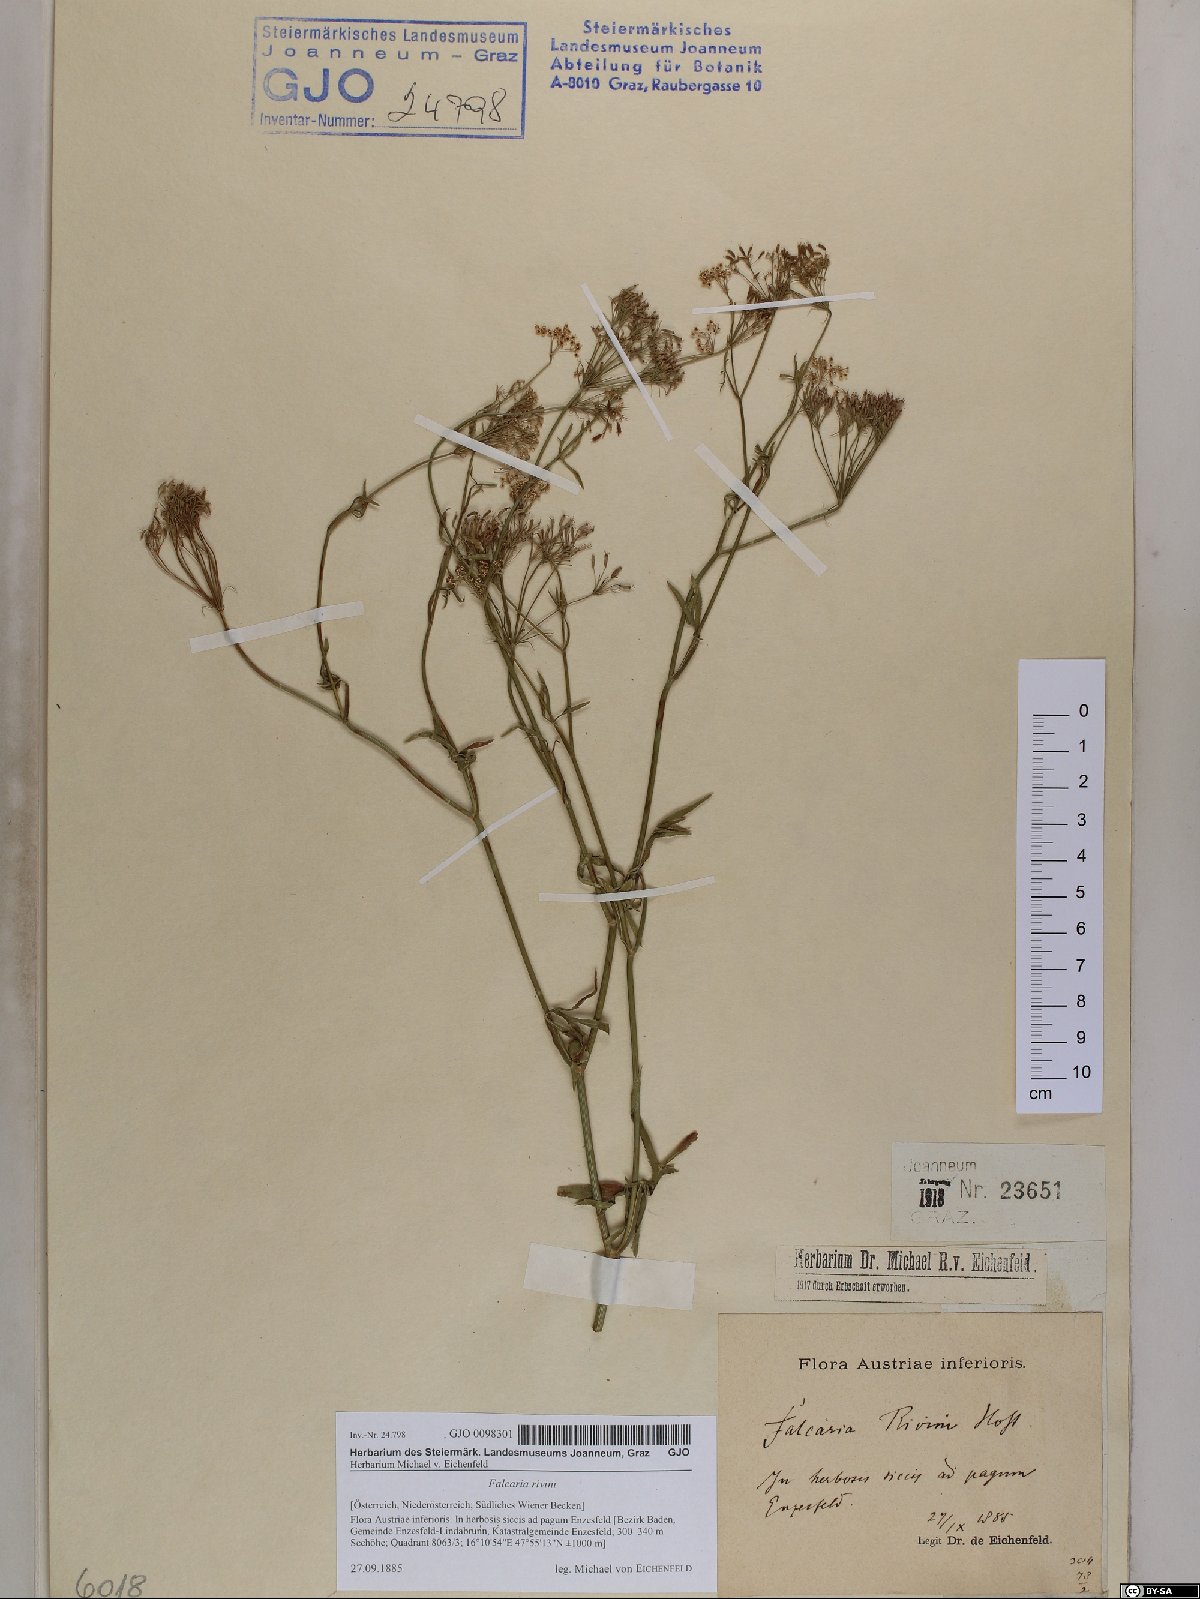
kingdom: Plantae
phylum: Tracheophyta
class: Magnoliopsida
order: Apiales
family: Apiaceae
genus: Falcaria
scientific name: Falcaria vulgaris
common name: Longleaf
